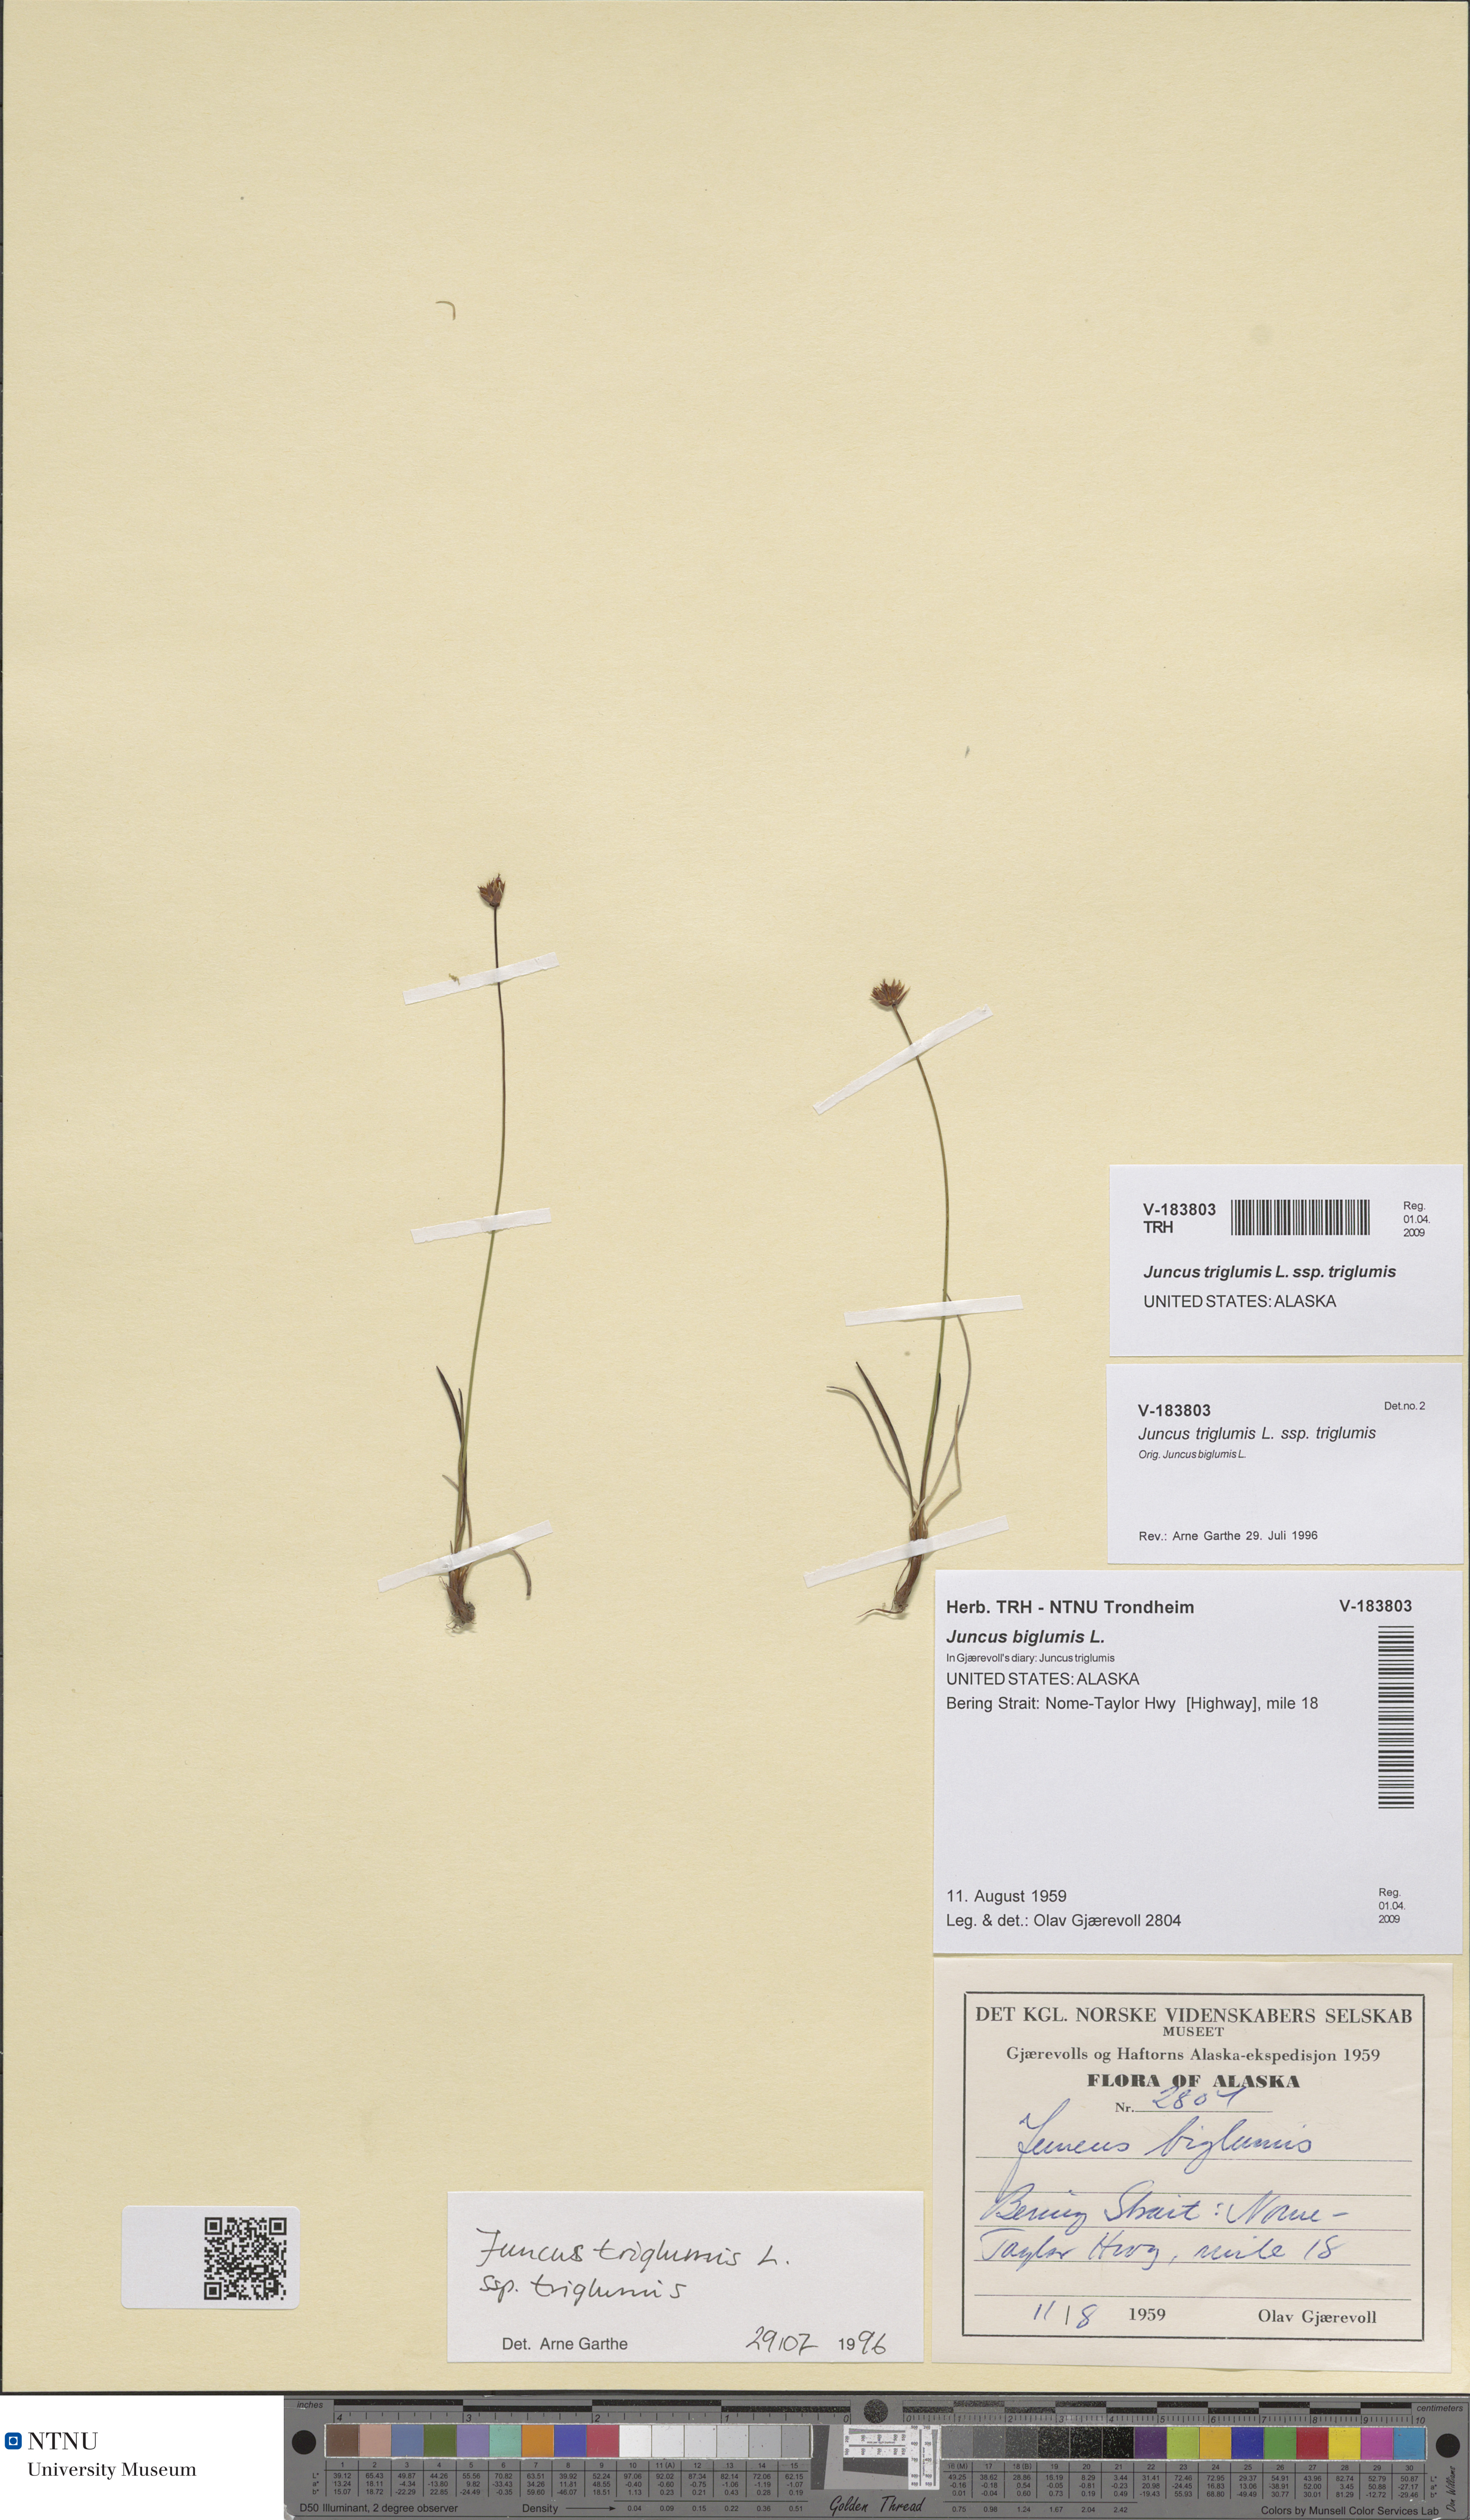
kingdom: Plantae
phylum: Tracheophyta
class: Liliopsida
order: Poales
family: Juncaceae
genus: Juncus
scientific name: Juncus triglumis
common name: Three-flowered rush
